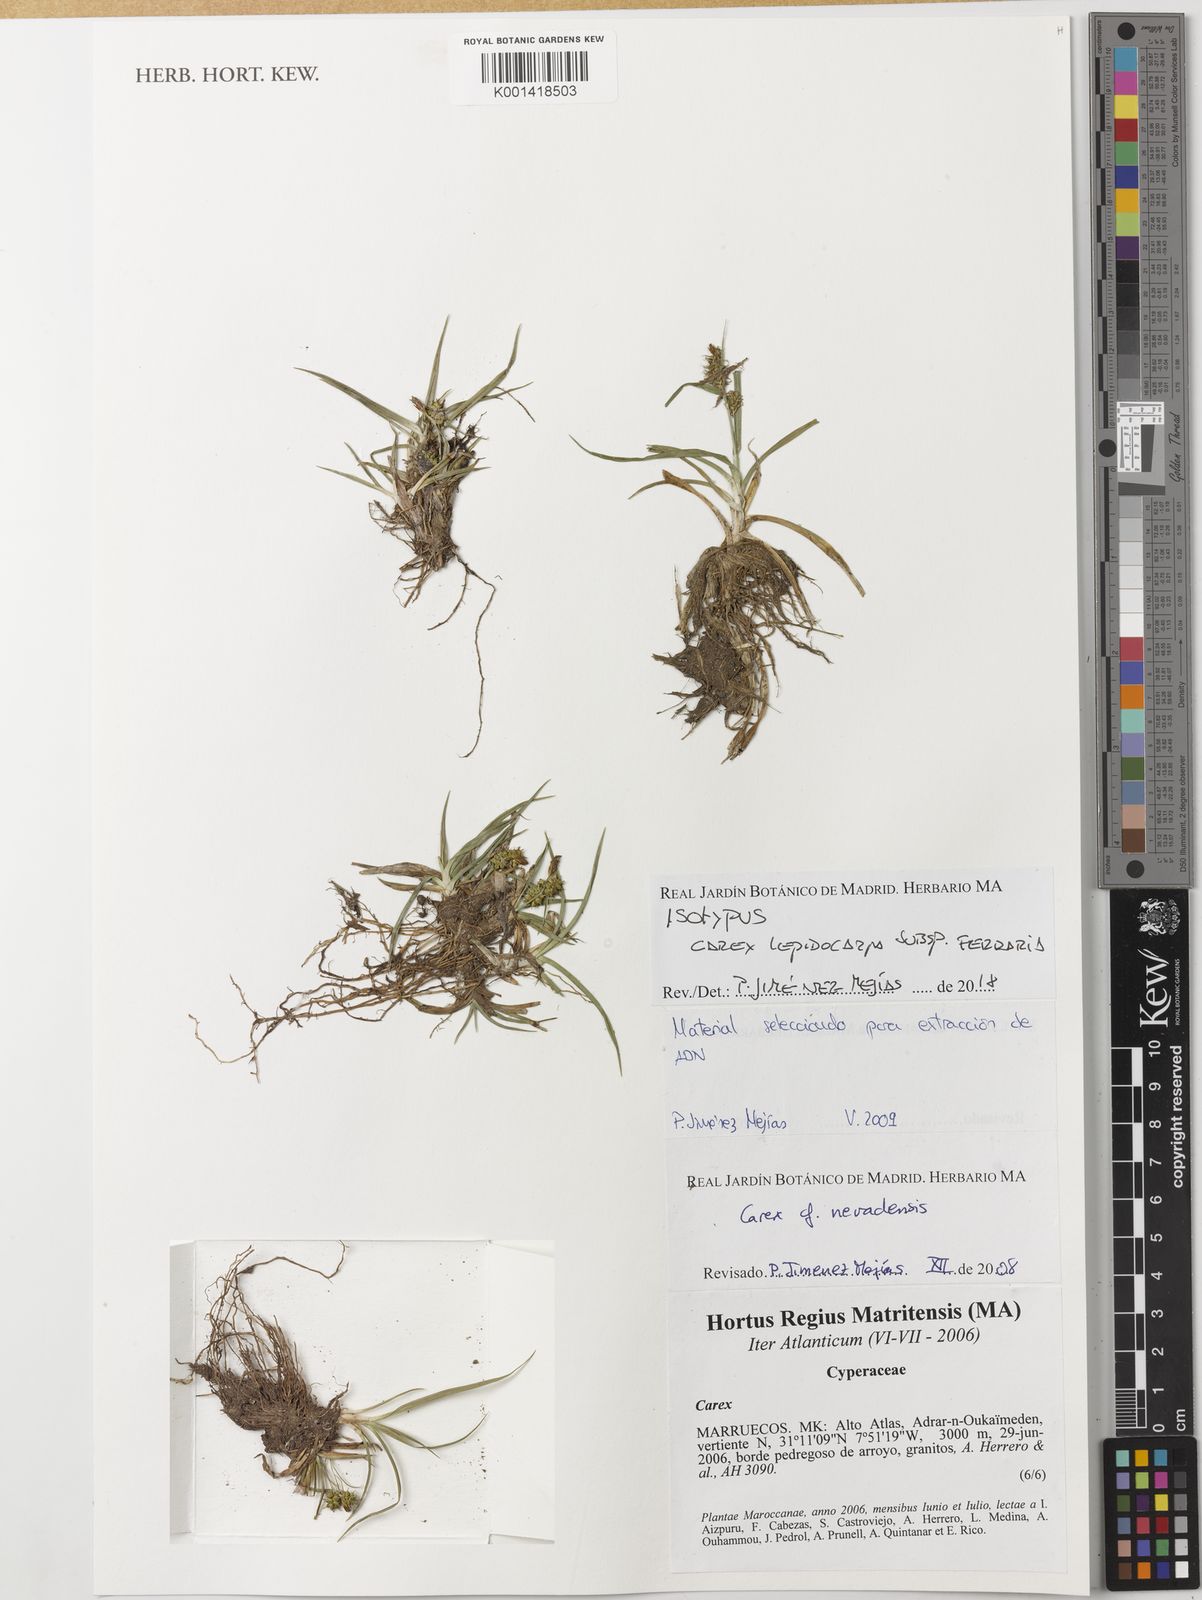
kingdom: Plantae
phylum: Tracheophyta
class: Liliopsida
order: Poales
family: Cyperaceae
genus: Carex
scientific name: Carex lepidocarpa
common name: Long-stalked yellow-sedge
